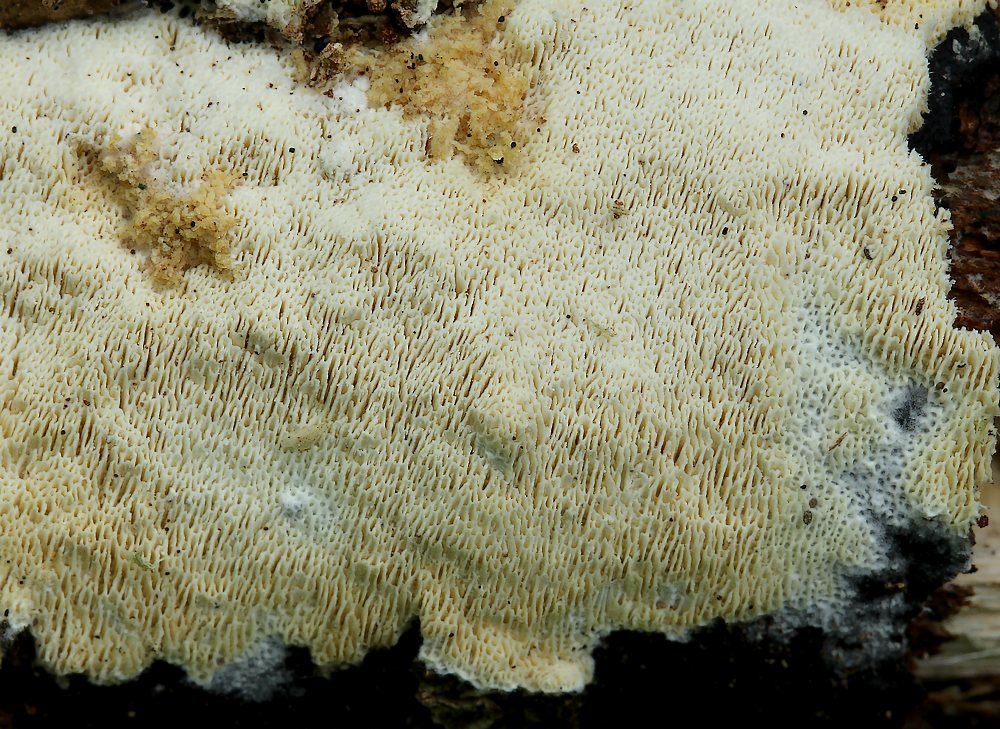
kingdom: Fungi
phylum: Basidiomycota
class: Agaricomycetes
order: Hymenochaetales
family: Schizoporaceae
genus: Xylodon
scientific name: Xylodon subtropicus
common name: labyrint-tandsvamp
